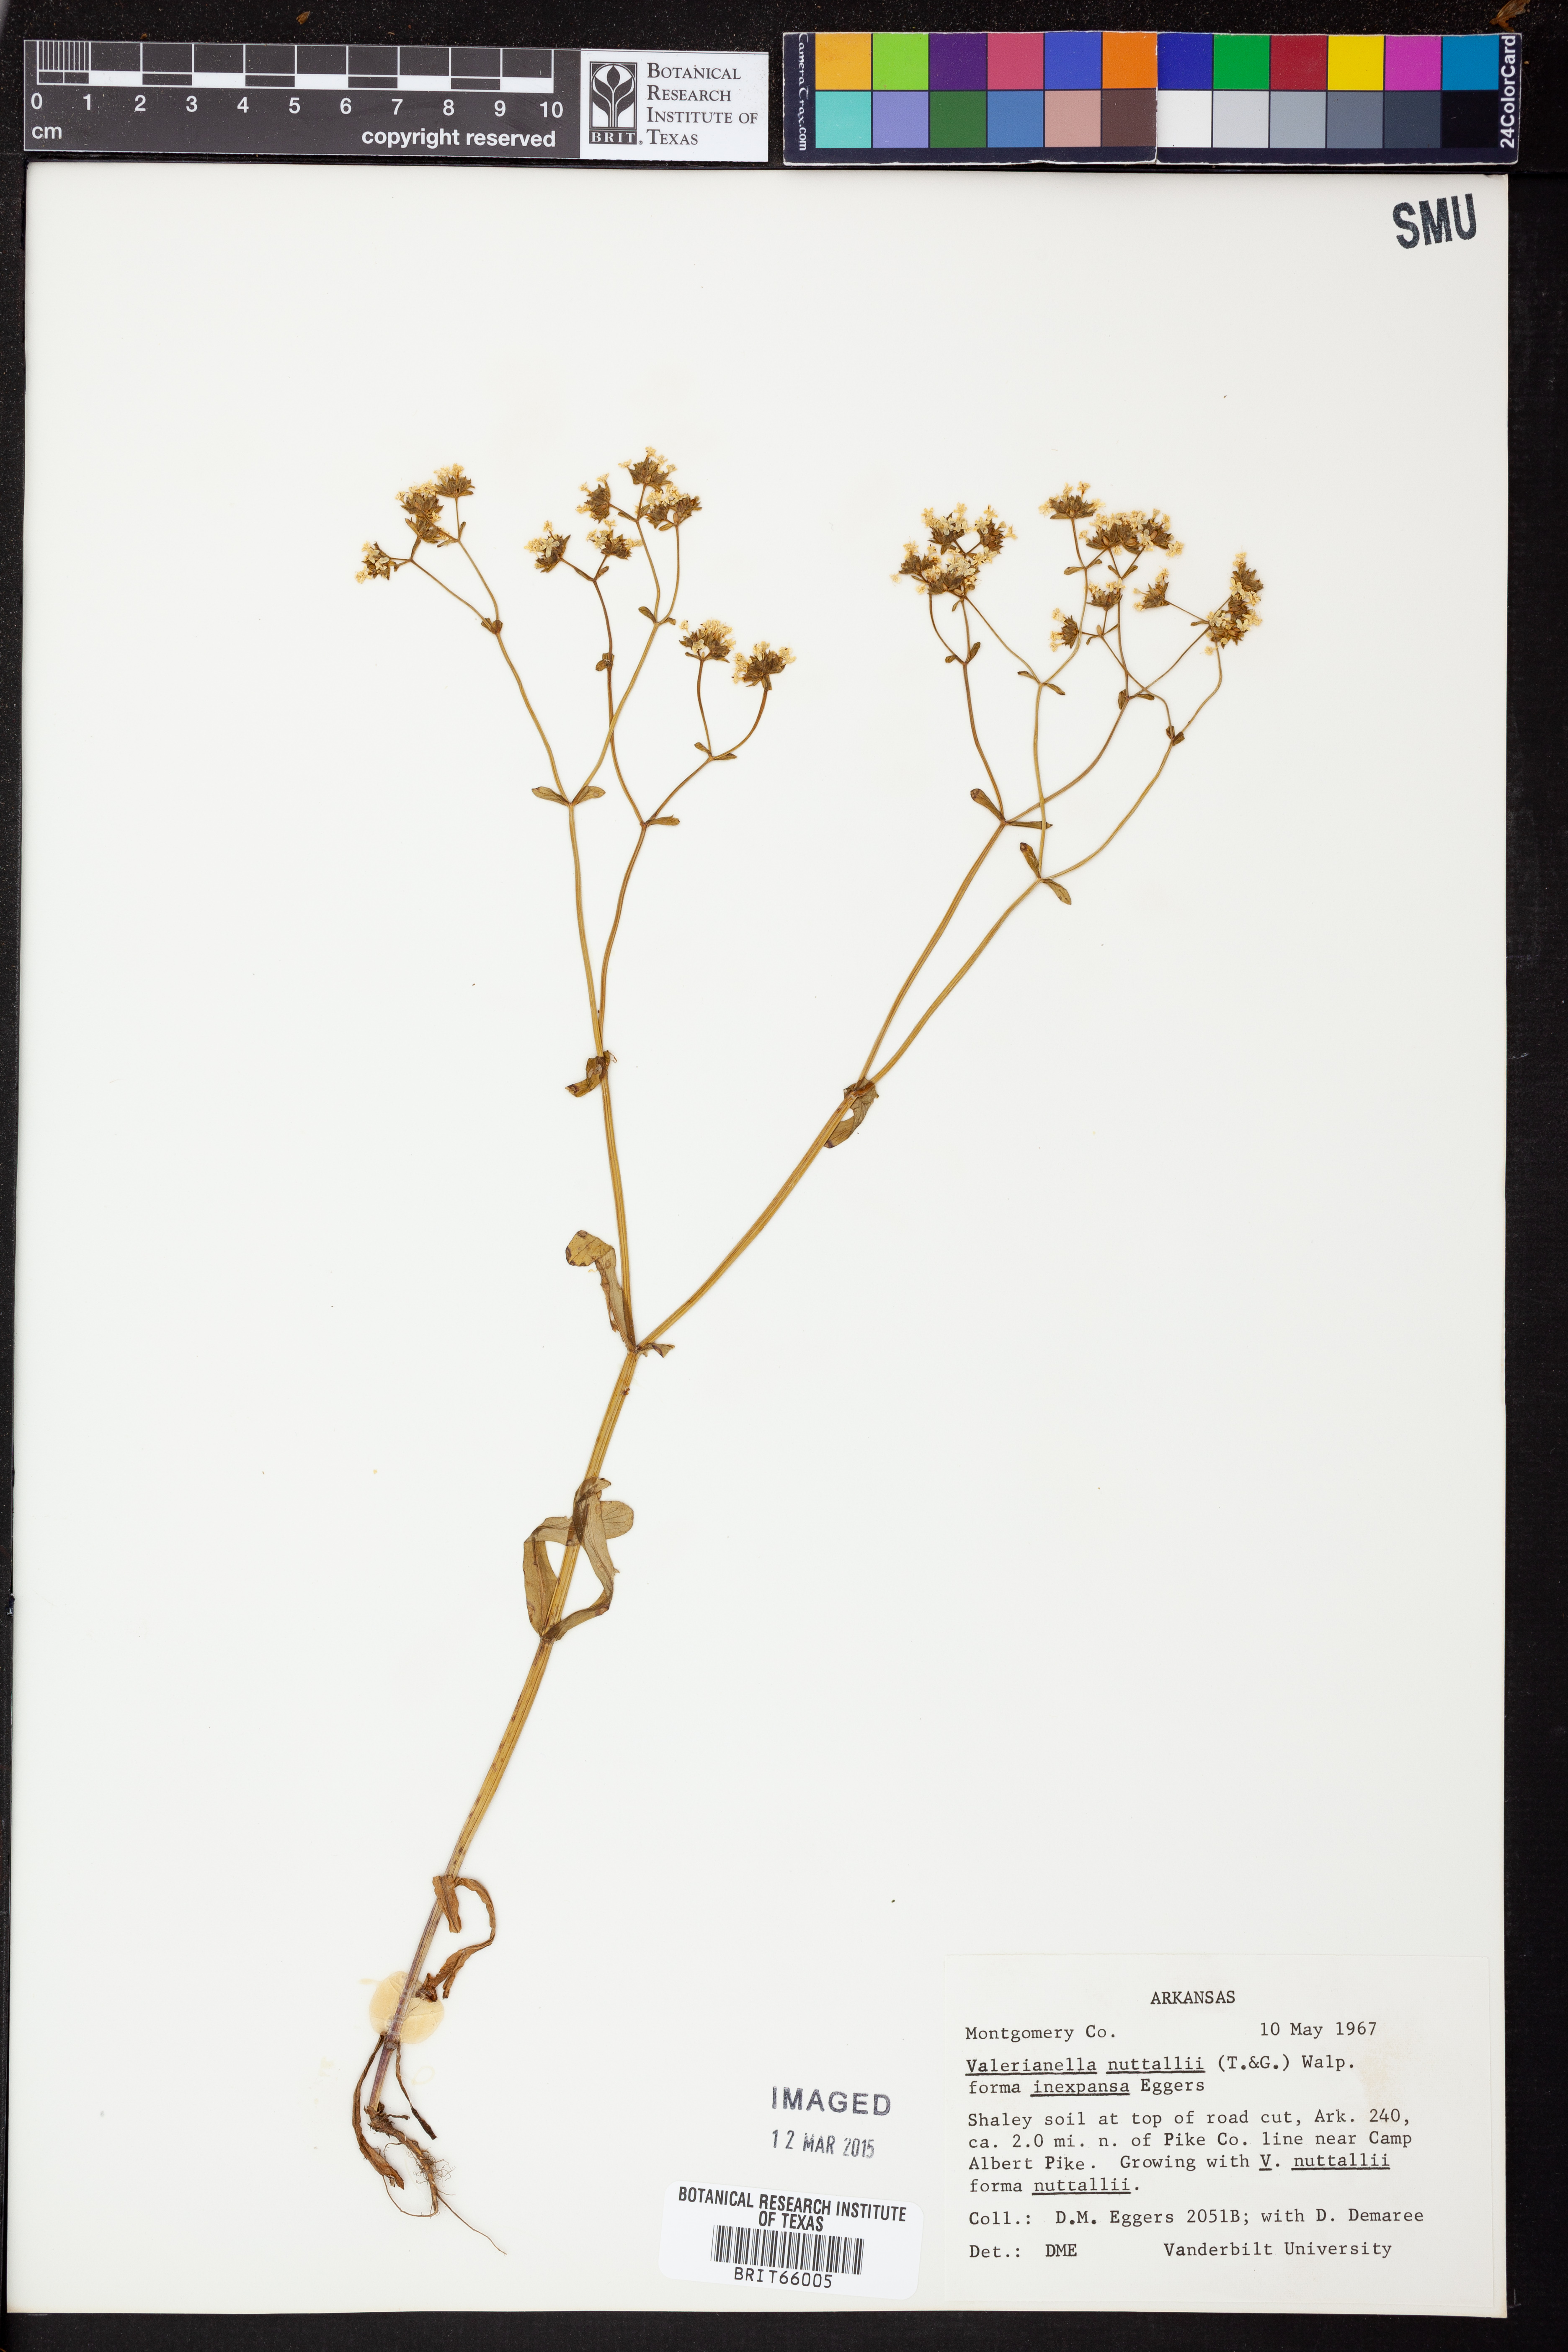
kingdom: Plantae
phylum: Tracheophyta
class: Magnoliopsida
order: Dipsacales
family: Caprifoliaceae
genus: Valerianella
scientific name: Valerianella nuttallii
